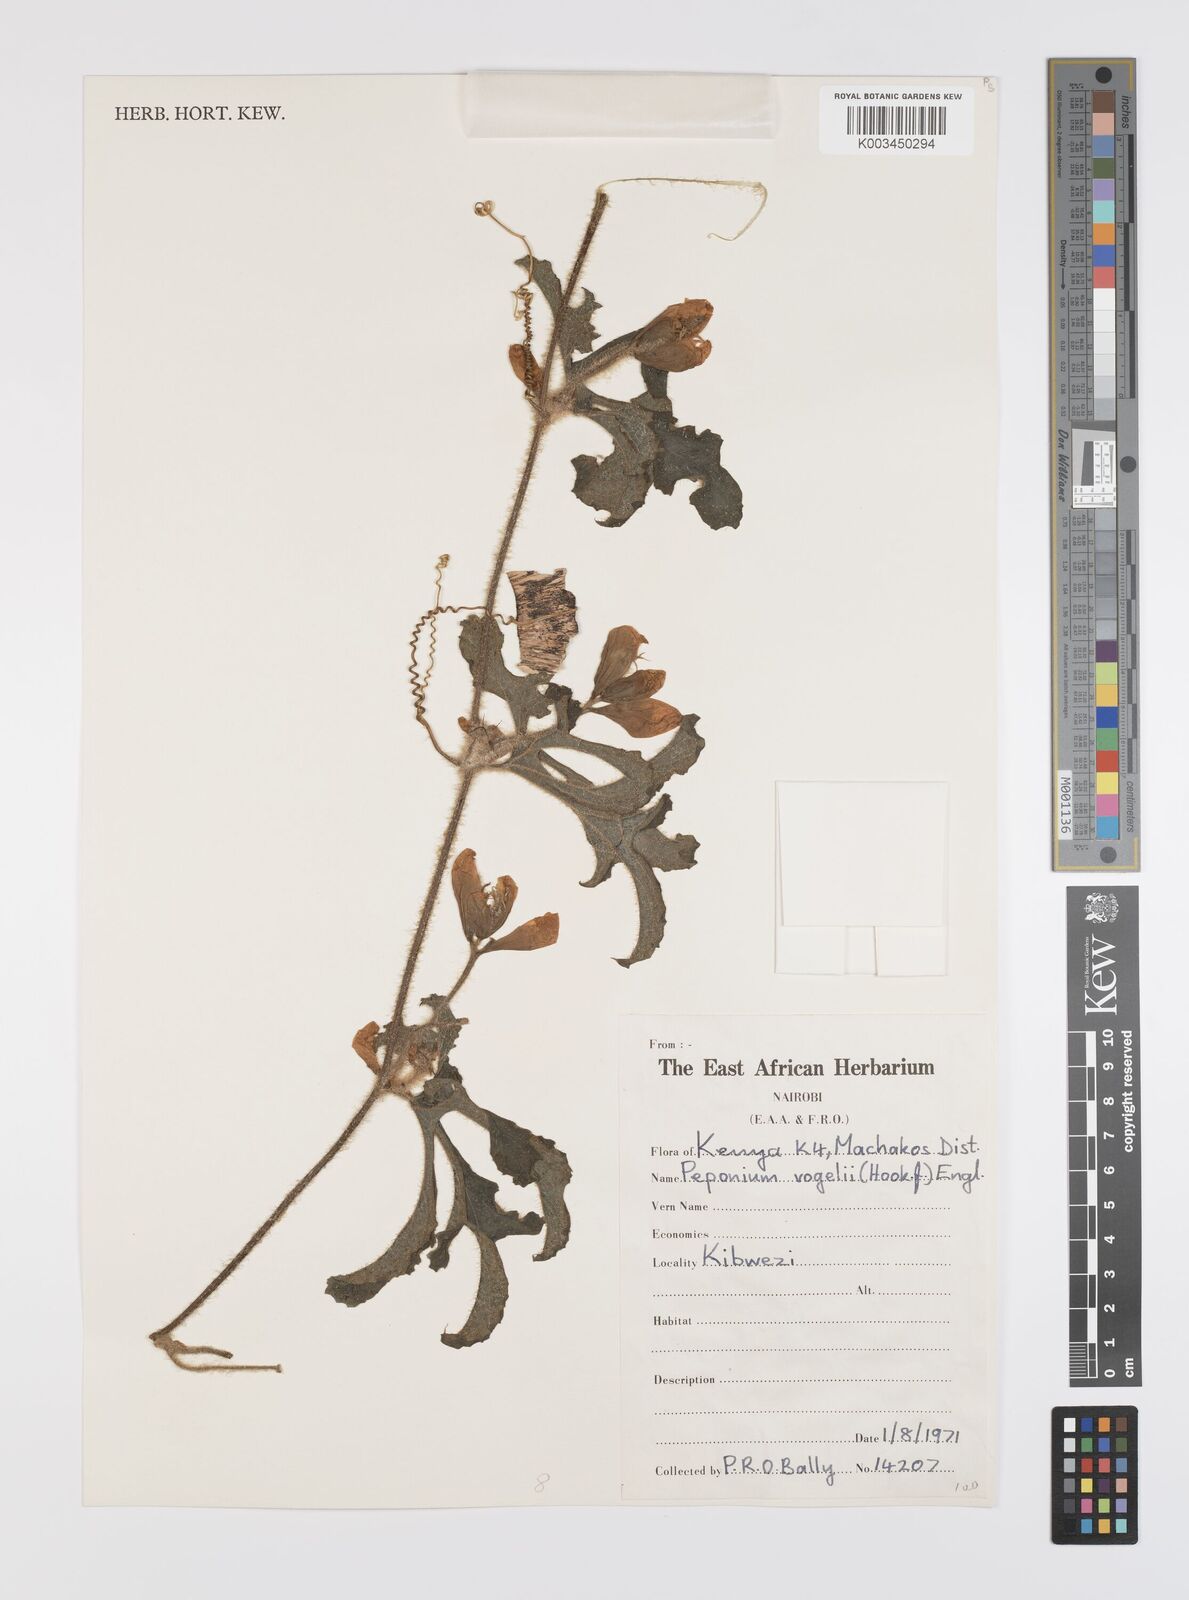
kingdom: Plantae
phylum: Tracheophyta
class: Magnoliopsida
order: Cucurbitales
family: Cucurbitaceae
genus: Peponium
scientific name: Peponium vogelii
